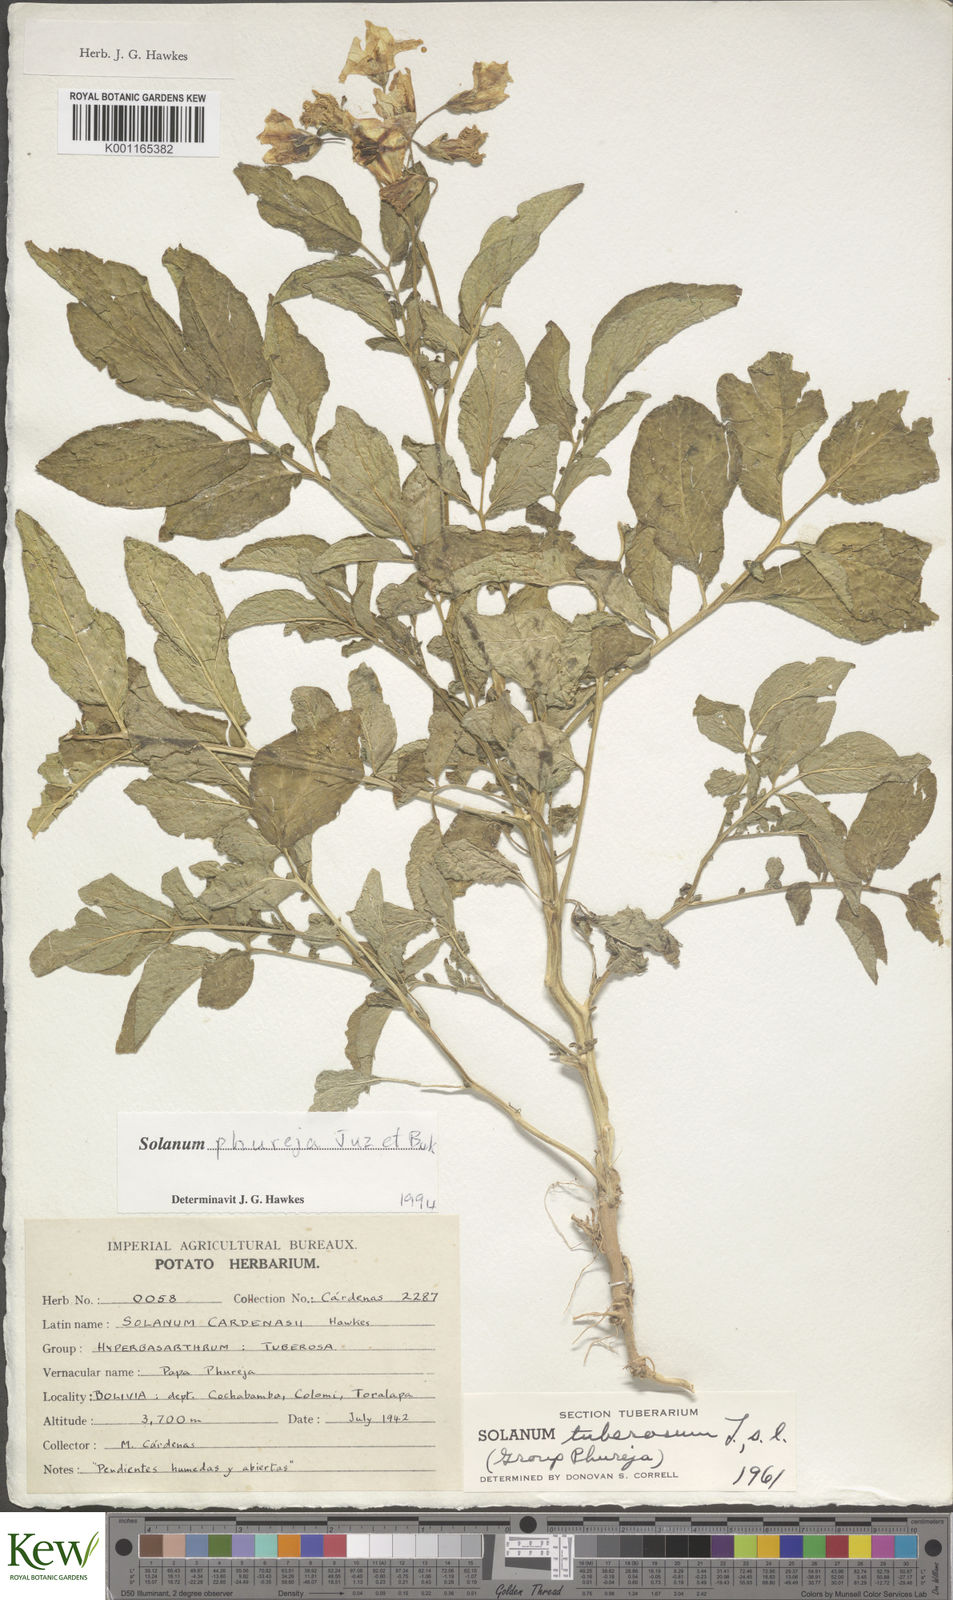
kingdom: Plantae
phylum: Tracheophyta
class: Magnoliopsida
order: Solanales
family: Solanaceae
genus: Solanum
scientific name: Solanum tuberosum
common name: Potato
